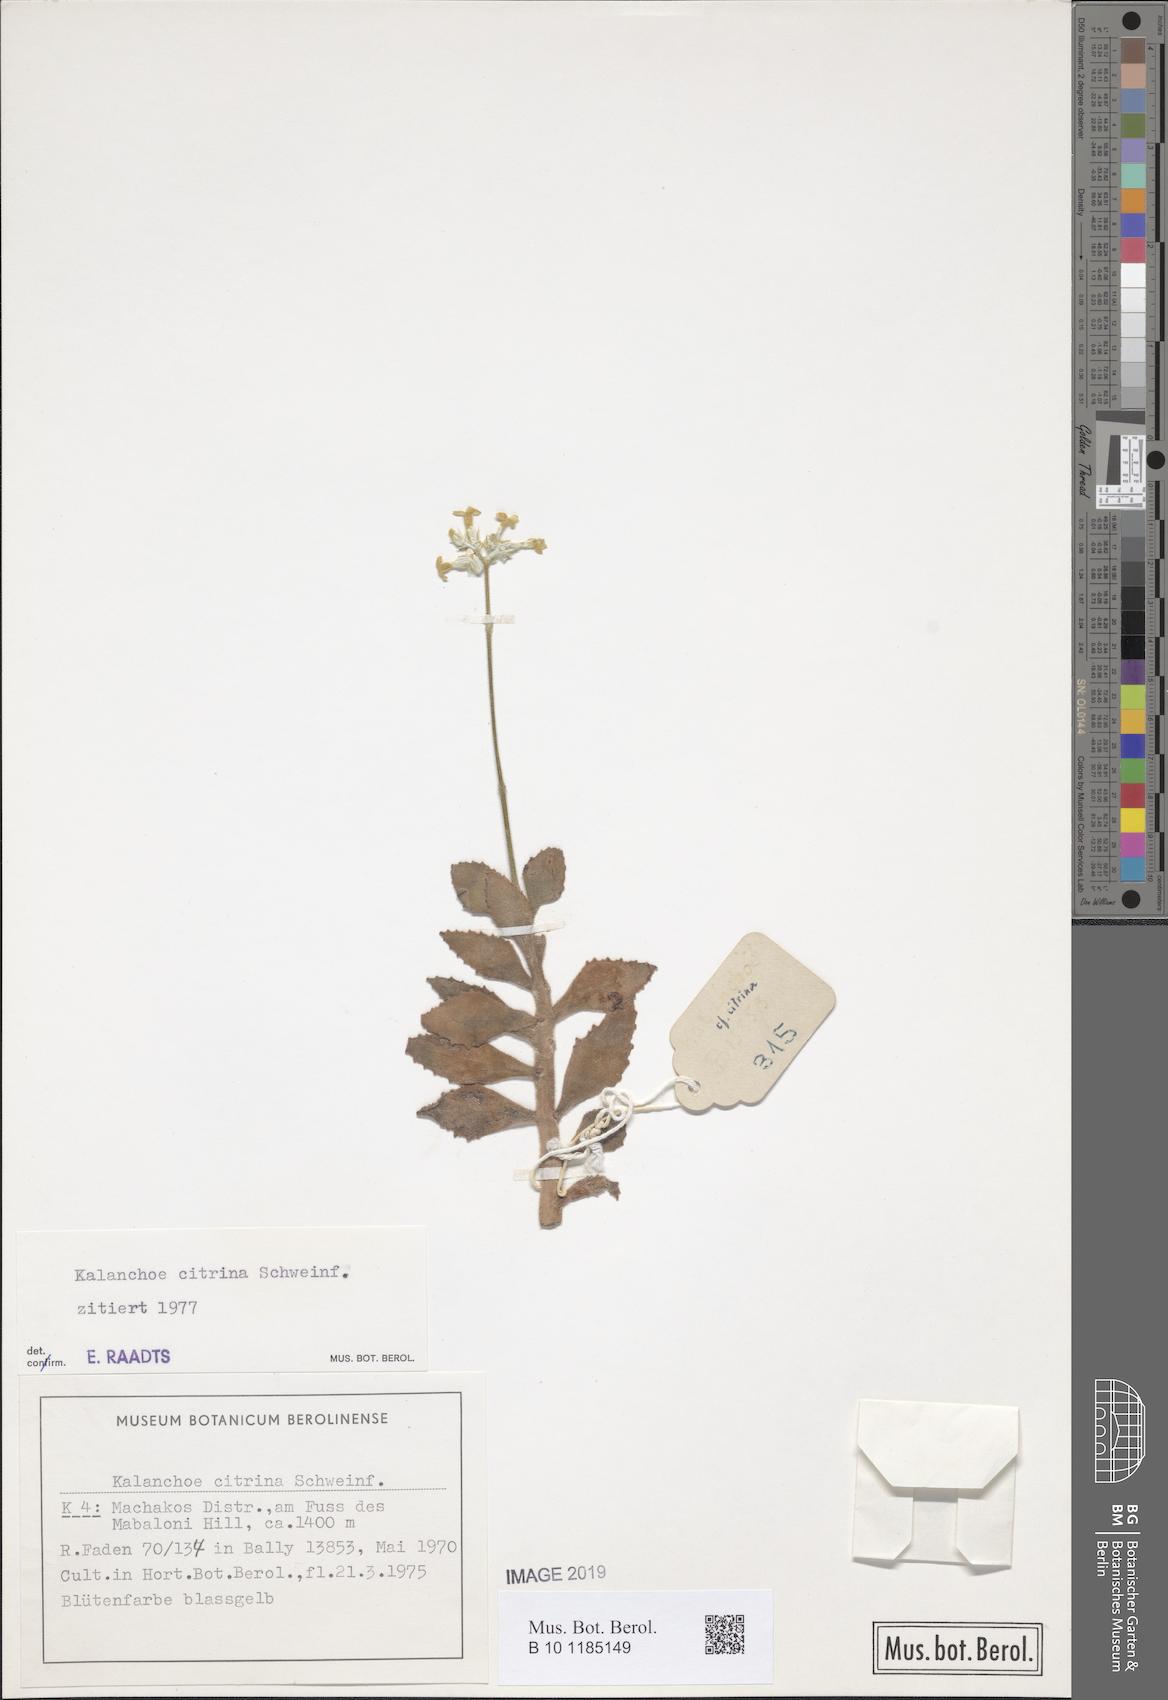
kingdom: Plantae
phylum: Tracheophyta
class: Magnoliopsida
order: Saxifragales
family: Crassulaceae
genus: Kalanchoe
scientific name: Kalanchoe citrina
